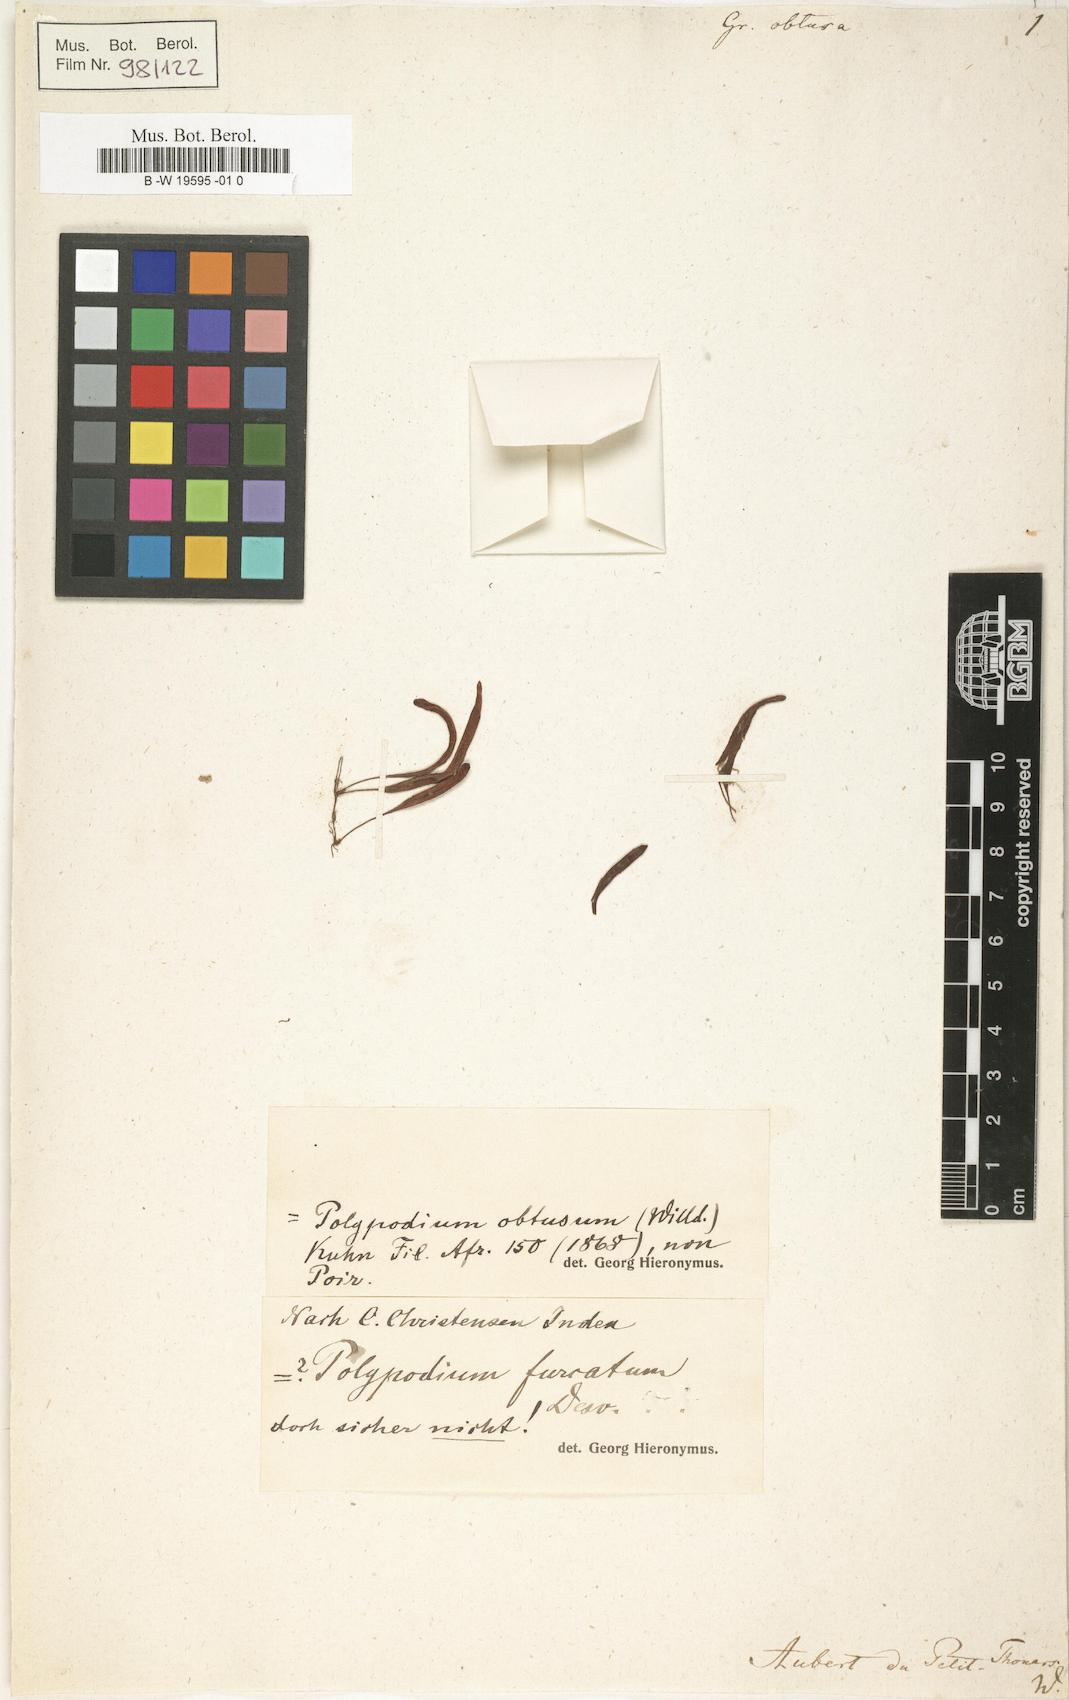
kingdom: Plantae
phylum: Tracheophyta
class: Polypodiopsida
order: Polypodiales
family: Polypodiaceae
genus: Grammitis
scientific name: Grammitis obtusa
